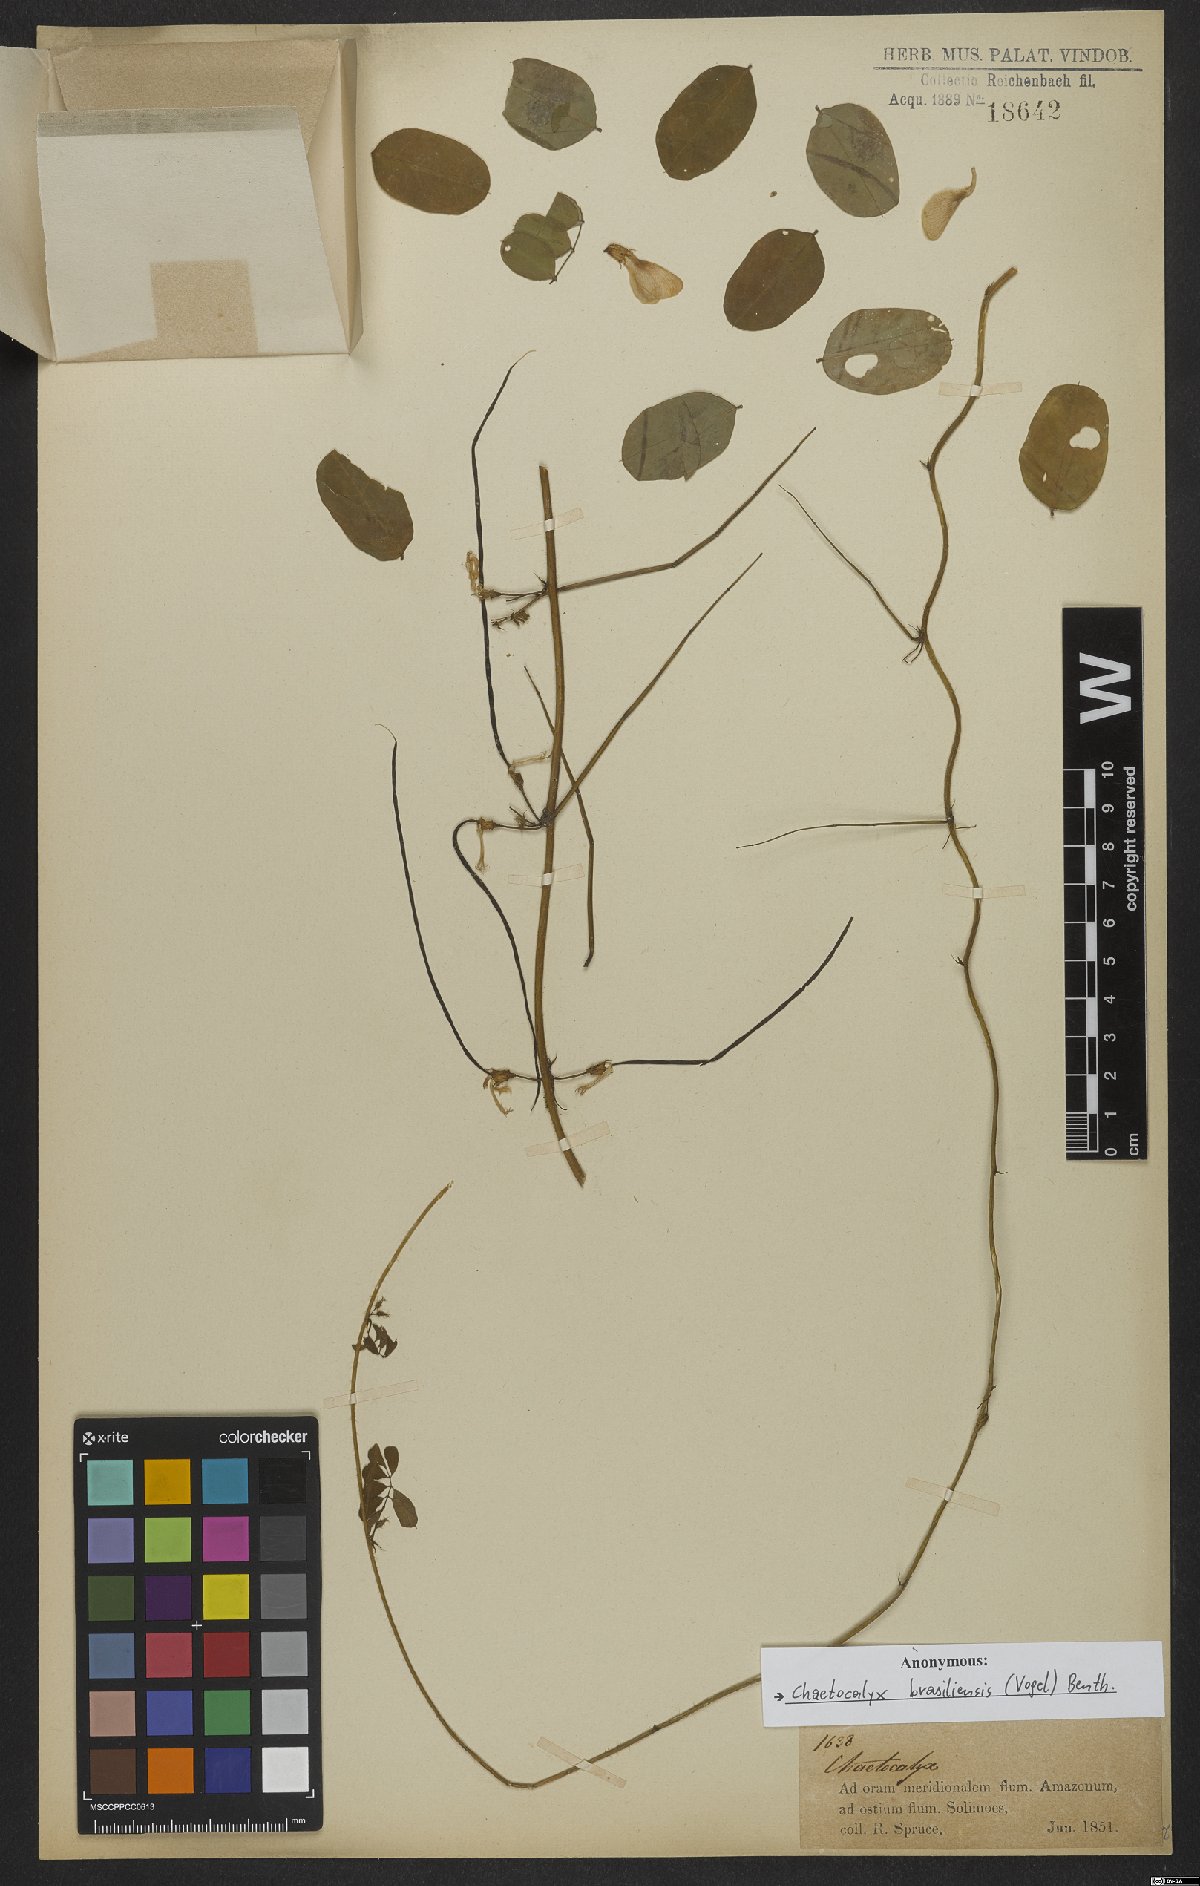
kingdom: Plantae
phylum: Tracheophyta
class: Magnoliopsida
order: Fabales
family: Fabaceae
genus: Nissolia
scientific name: Nissolia brasiliensis
